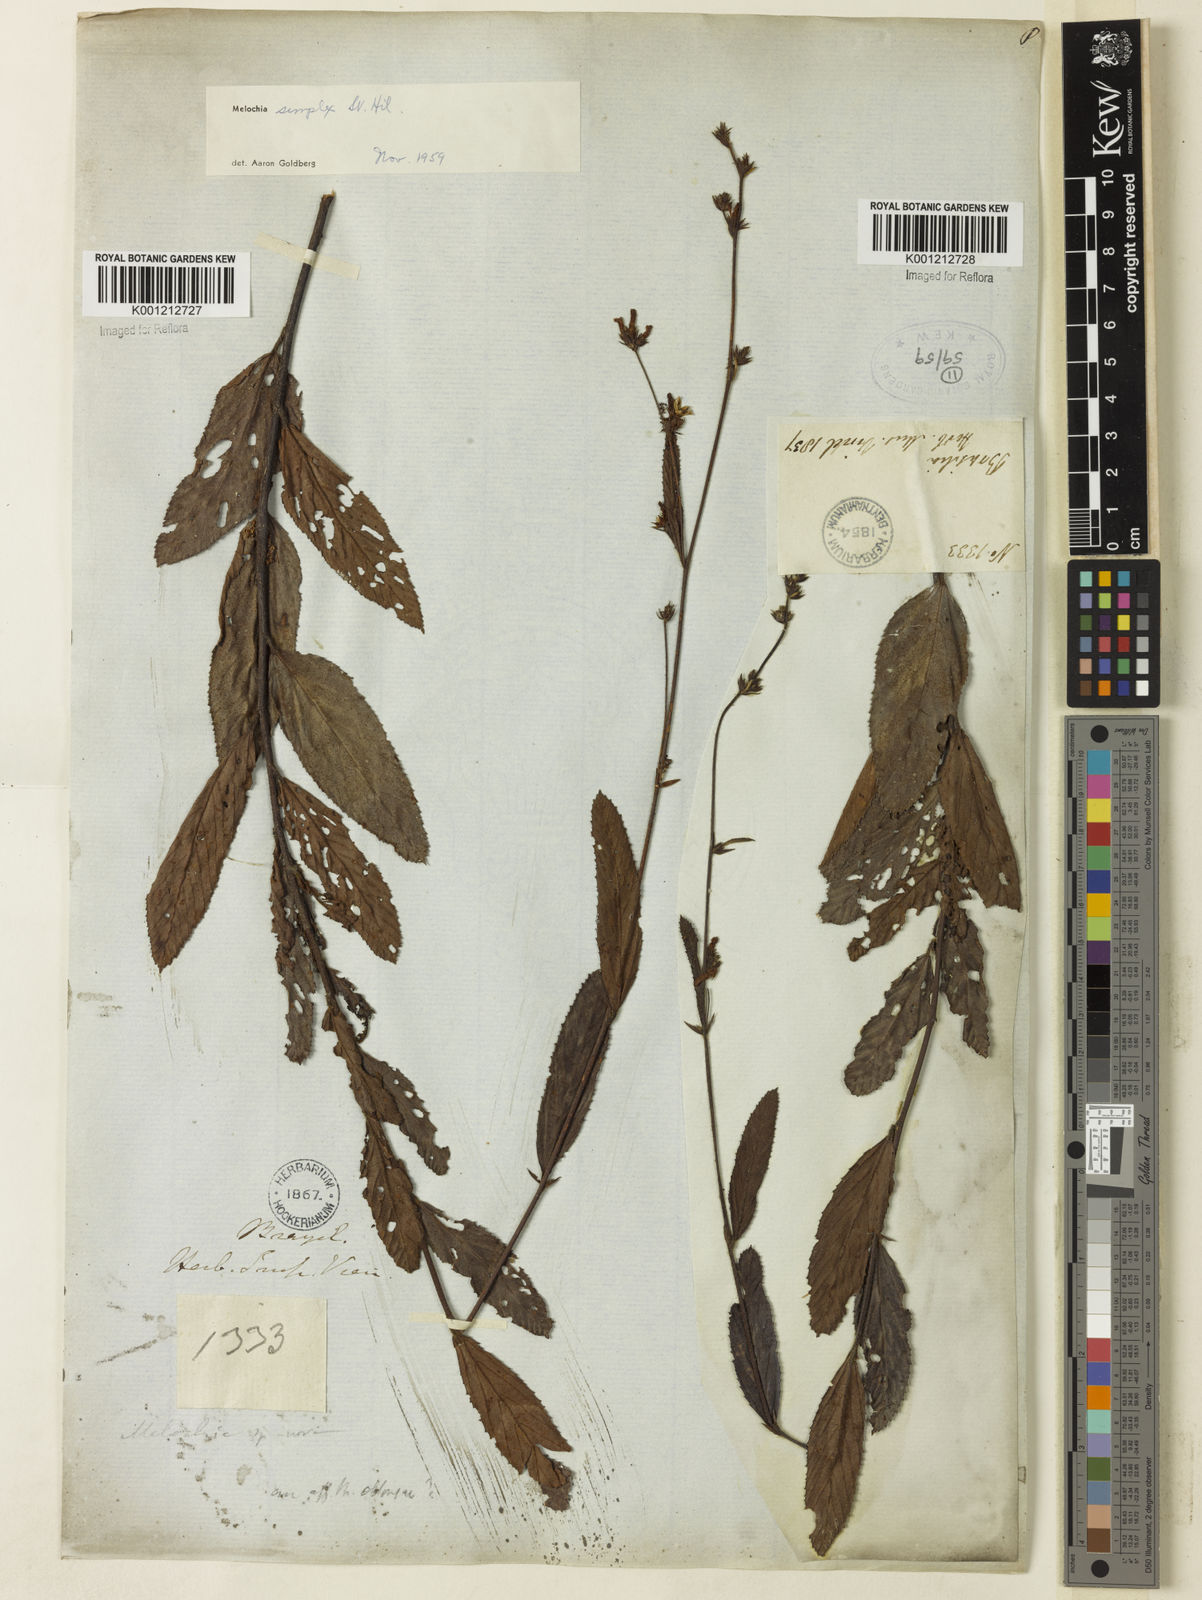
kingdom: Plantae
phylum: Tracheophyta
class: Magnoliopsida
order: Malvales
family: Malvaceae
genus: Melochia
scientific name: Melochia simplex
